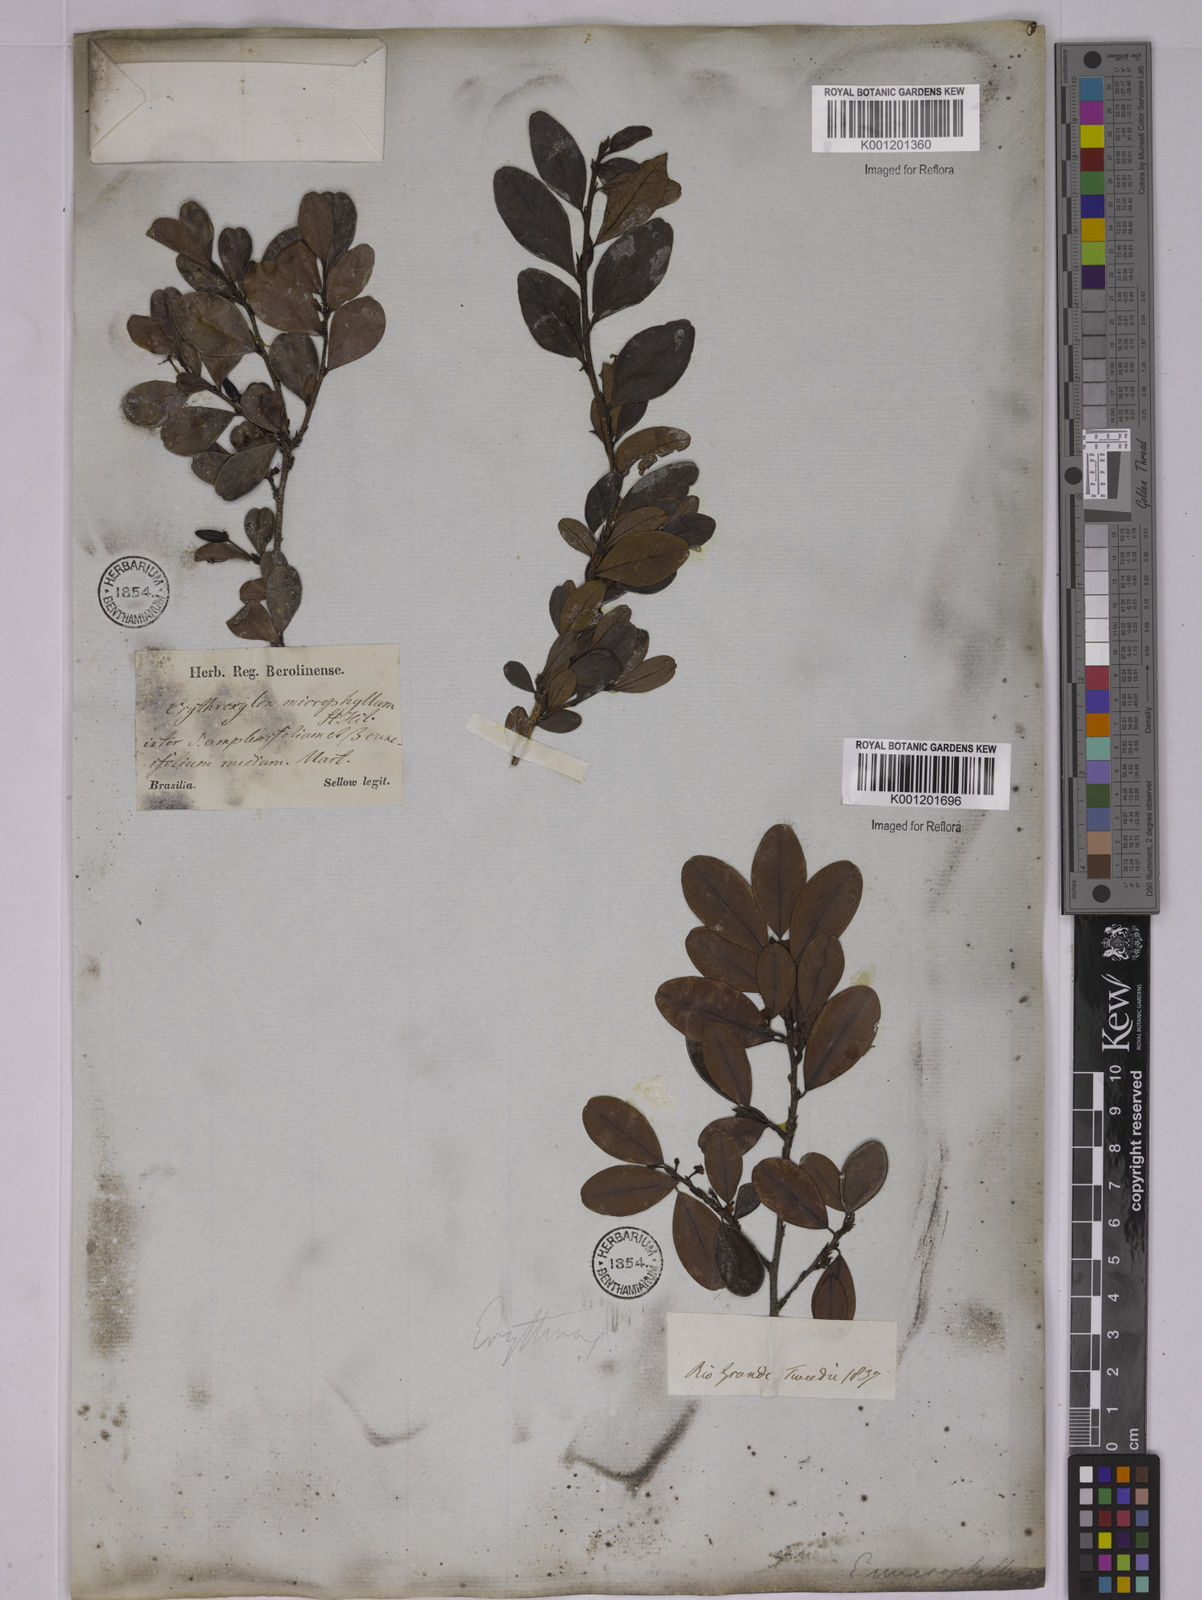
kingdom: Plantae
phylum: Tracheophyta
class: Magnoliopsida
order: Malpighiales
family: Erythroxylaceae
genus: Erythroxylum
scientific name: Erythroxylum
